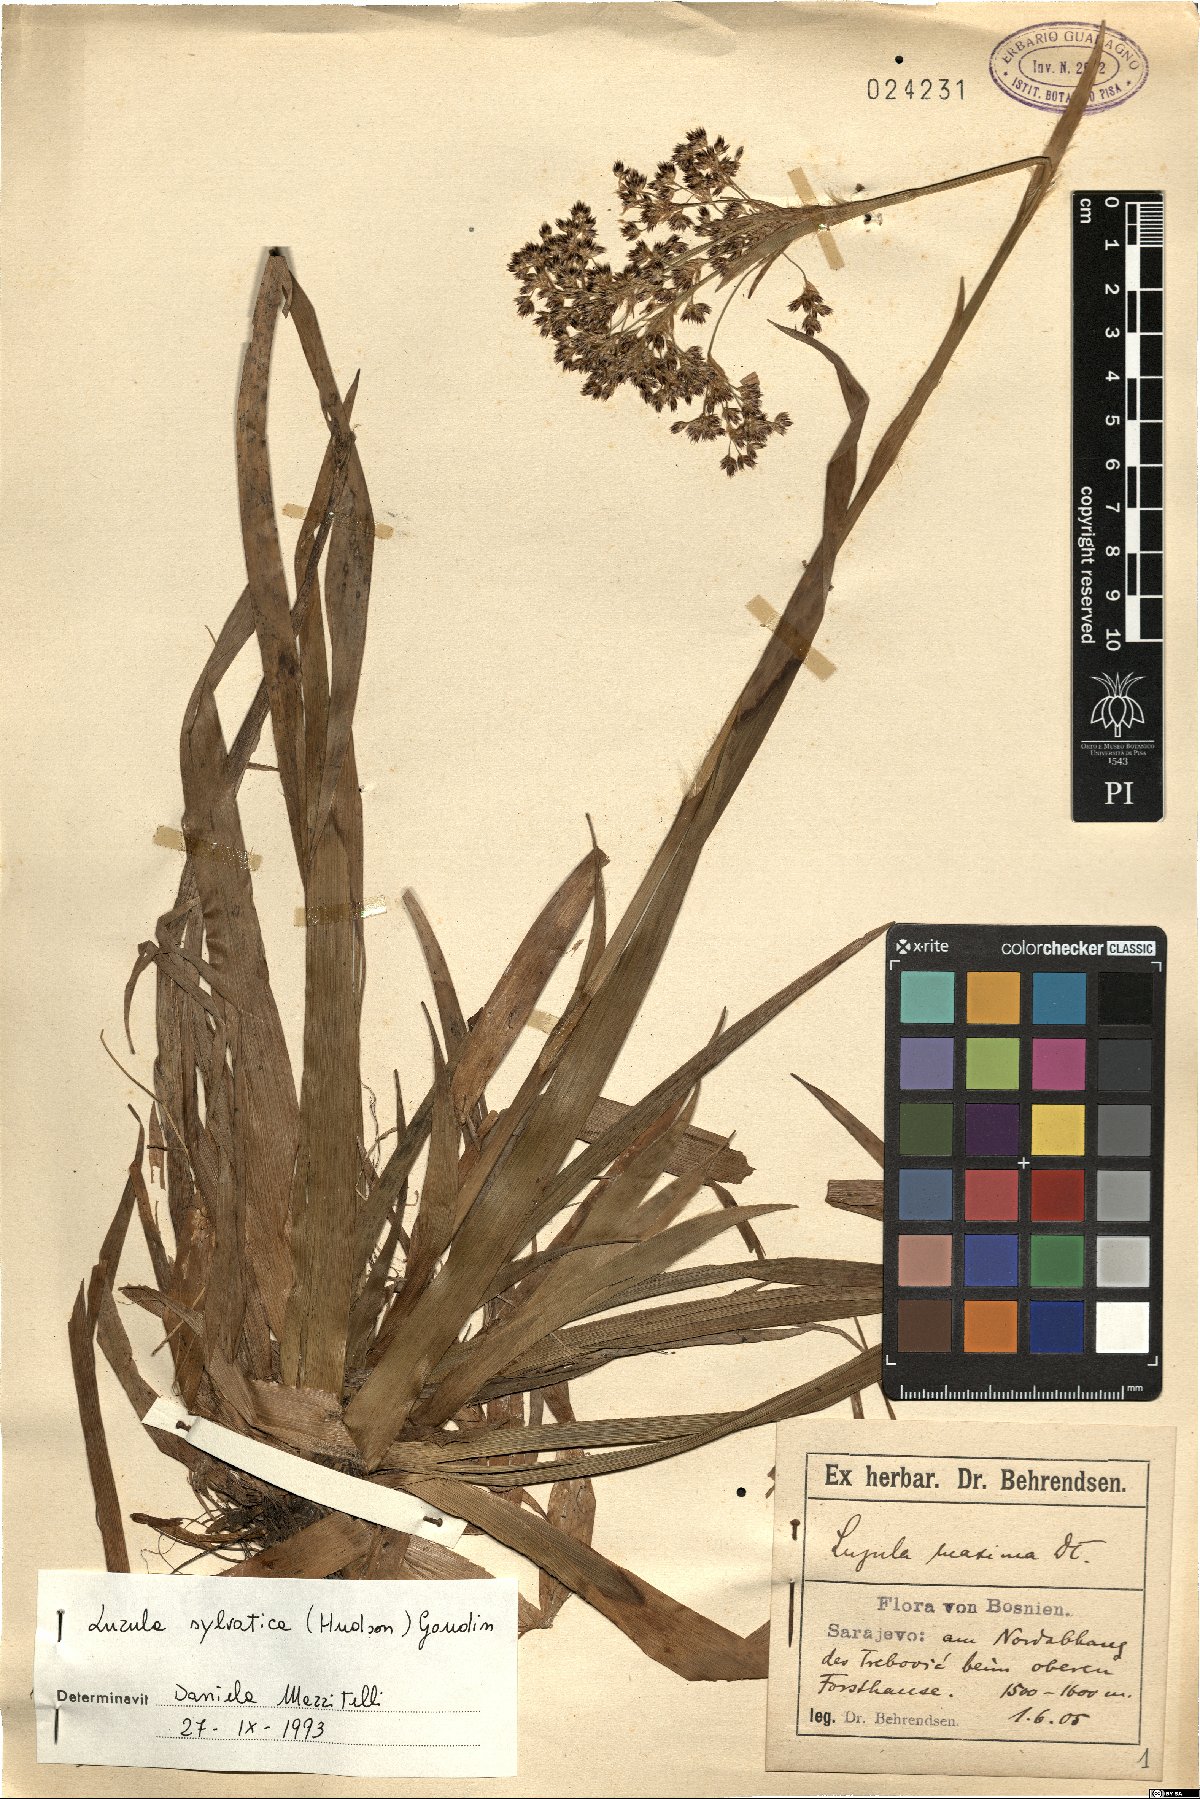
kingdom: Plantae
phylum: Tracheophyta
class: Liliopsida
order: Poales
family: Juncaceae
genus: Luzula
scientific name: Luzula sylvatica
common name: Great wood-rush
